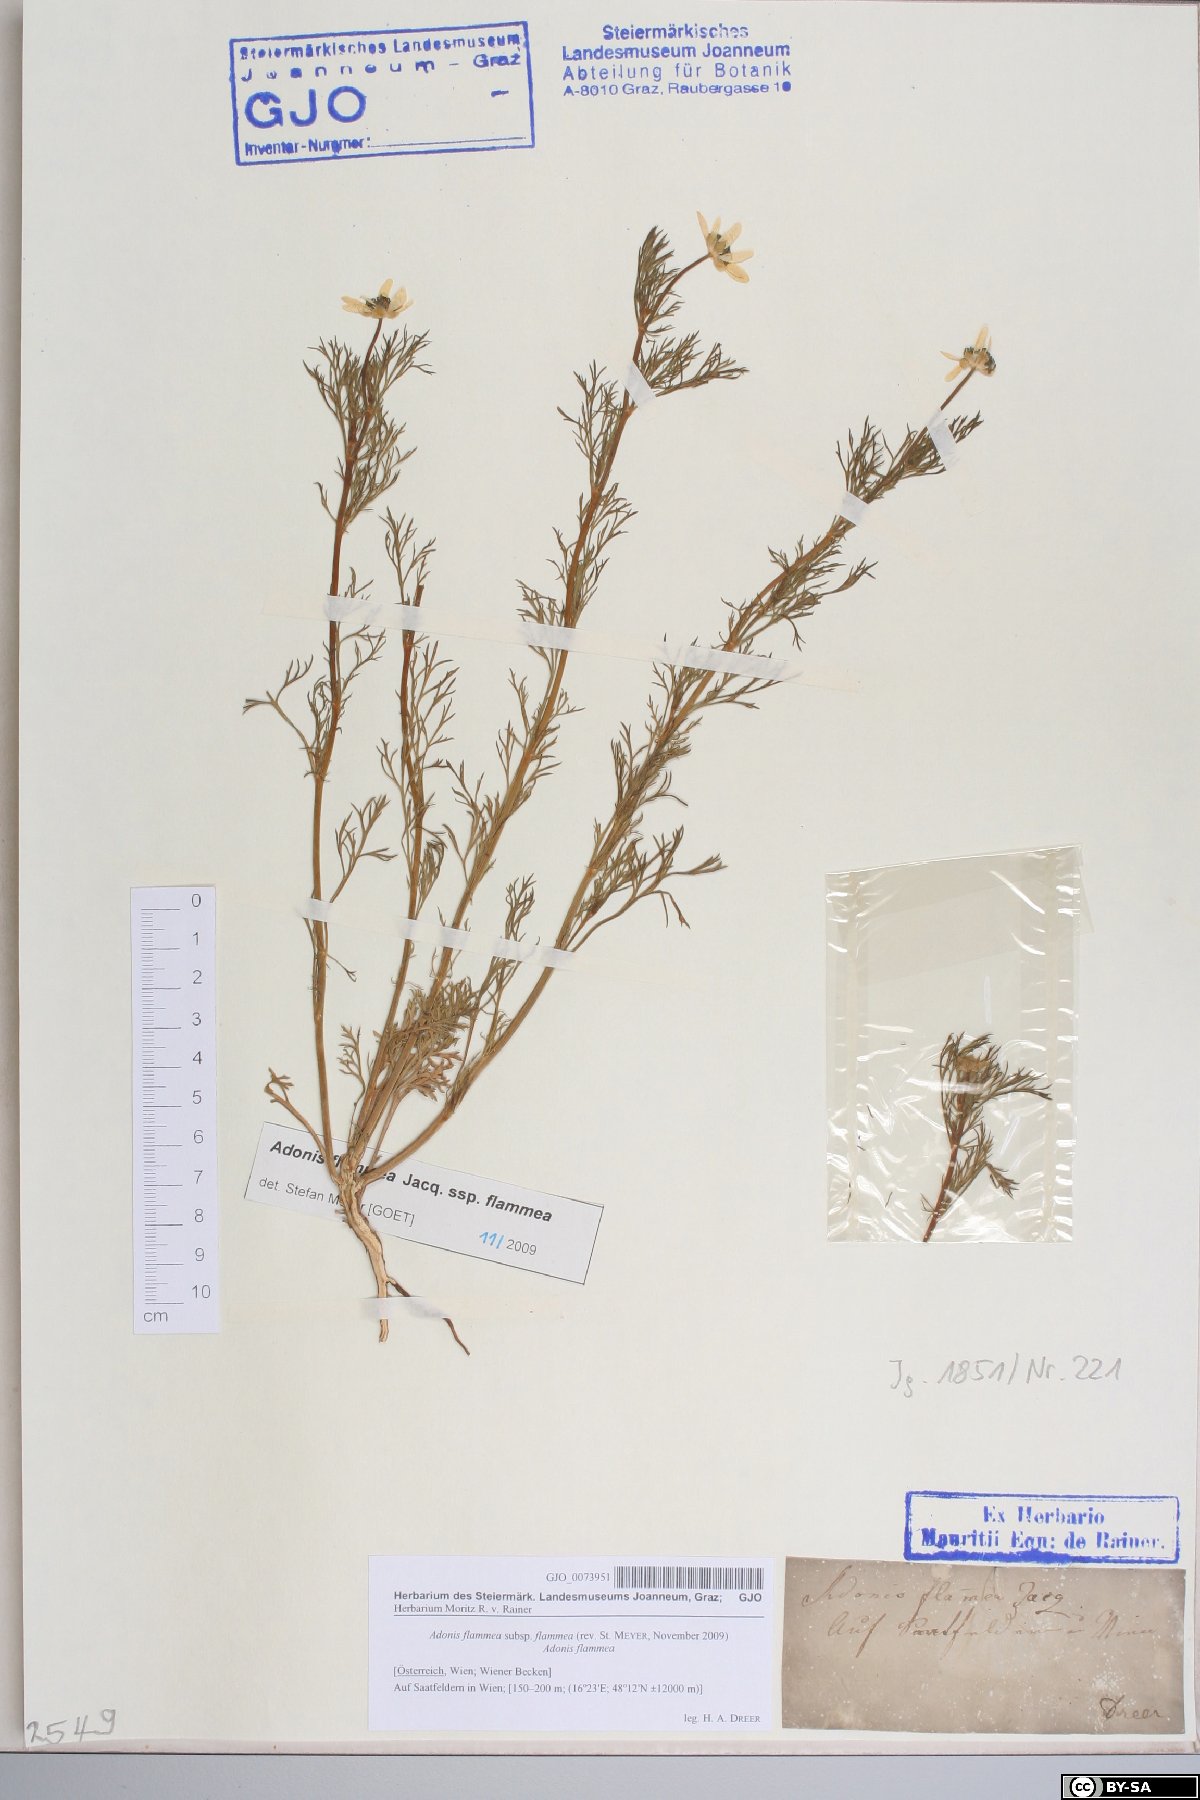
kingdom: Plantae
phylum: Tracheophyta
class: Magnoliopsida
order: Ranunculales
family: Ranunculaceae
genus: Adonis
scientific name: Adonis flammea
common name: Large pheasant's-eye
